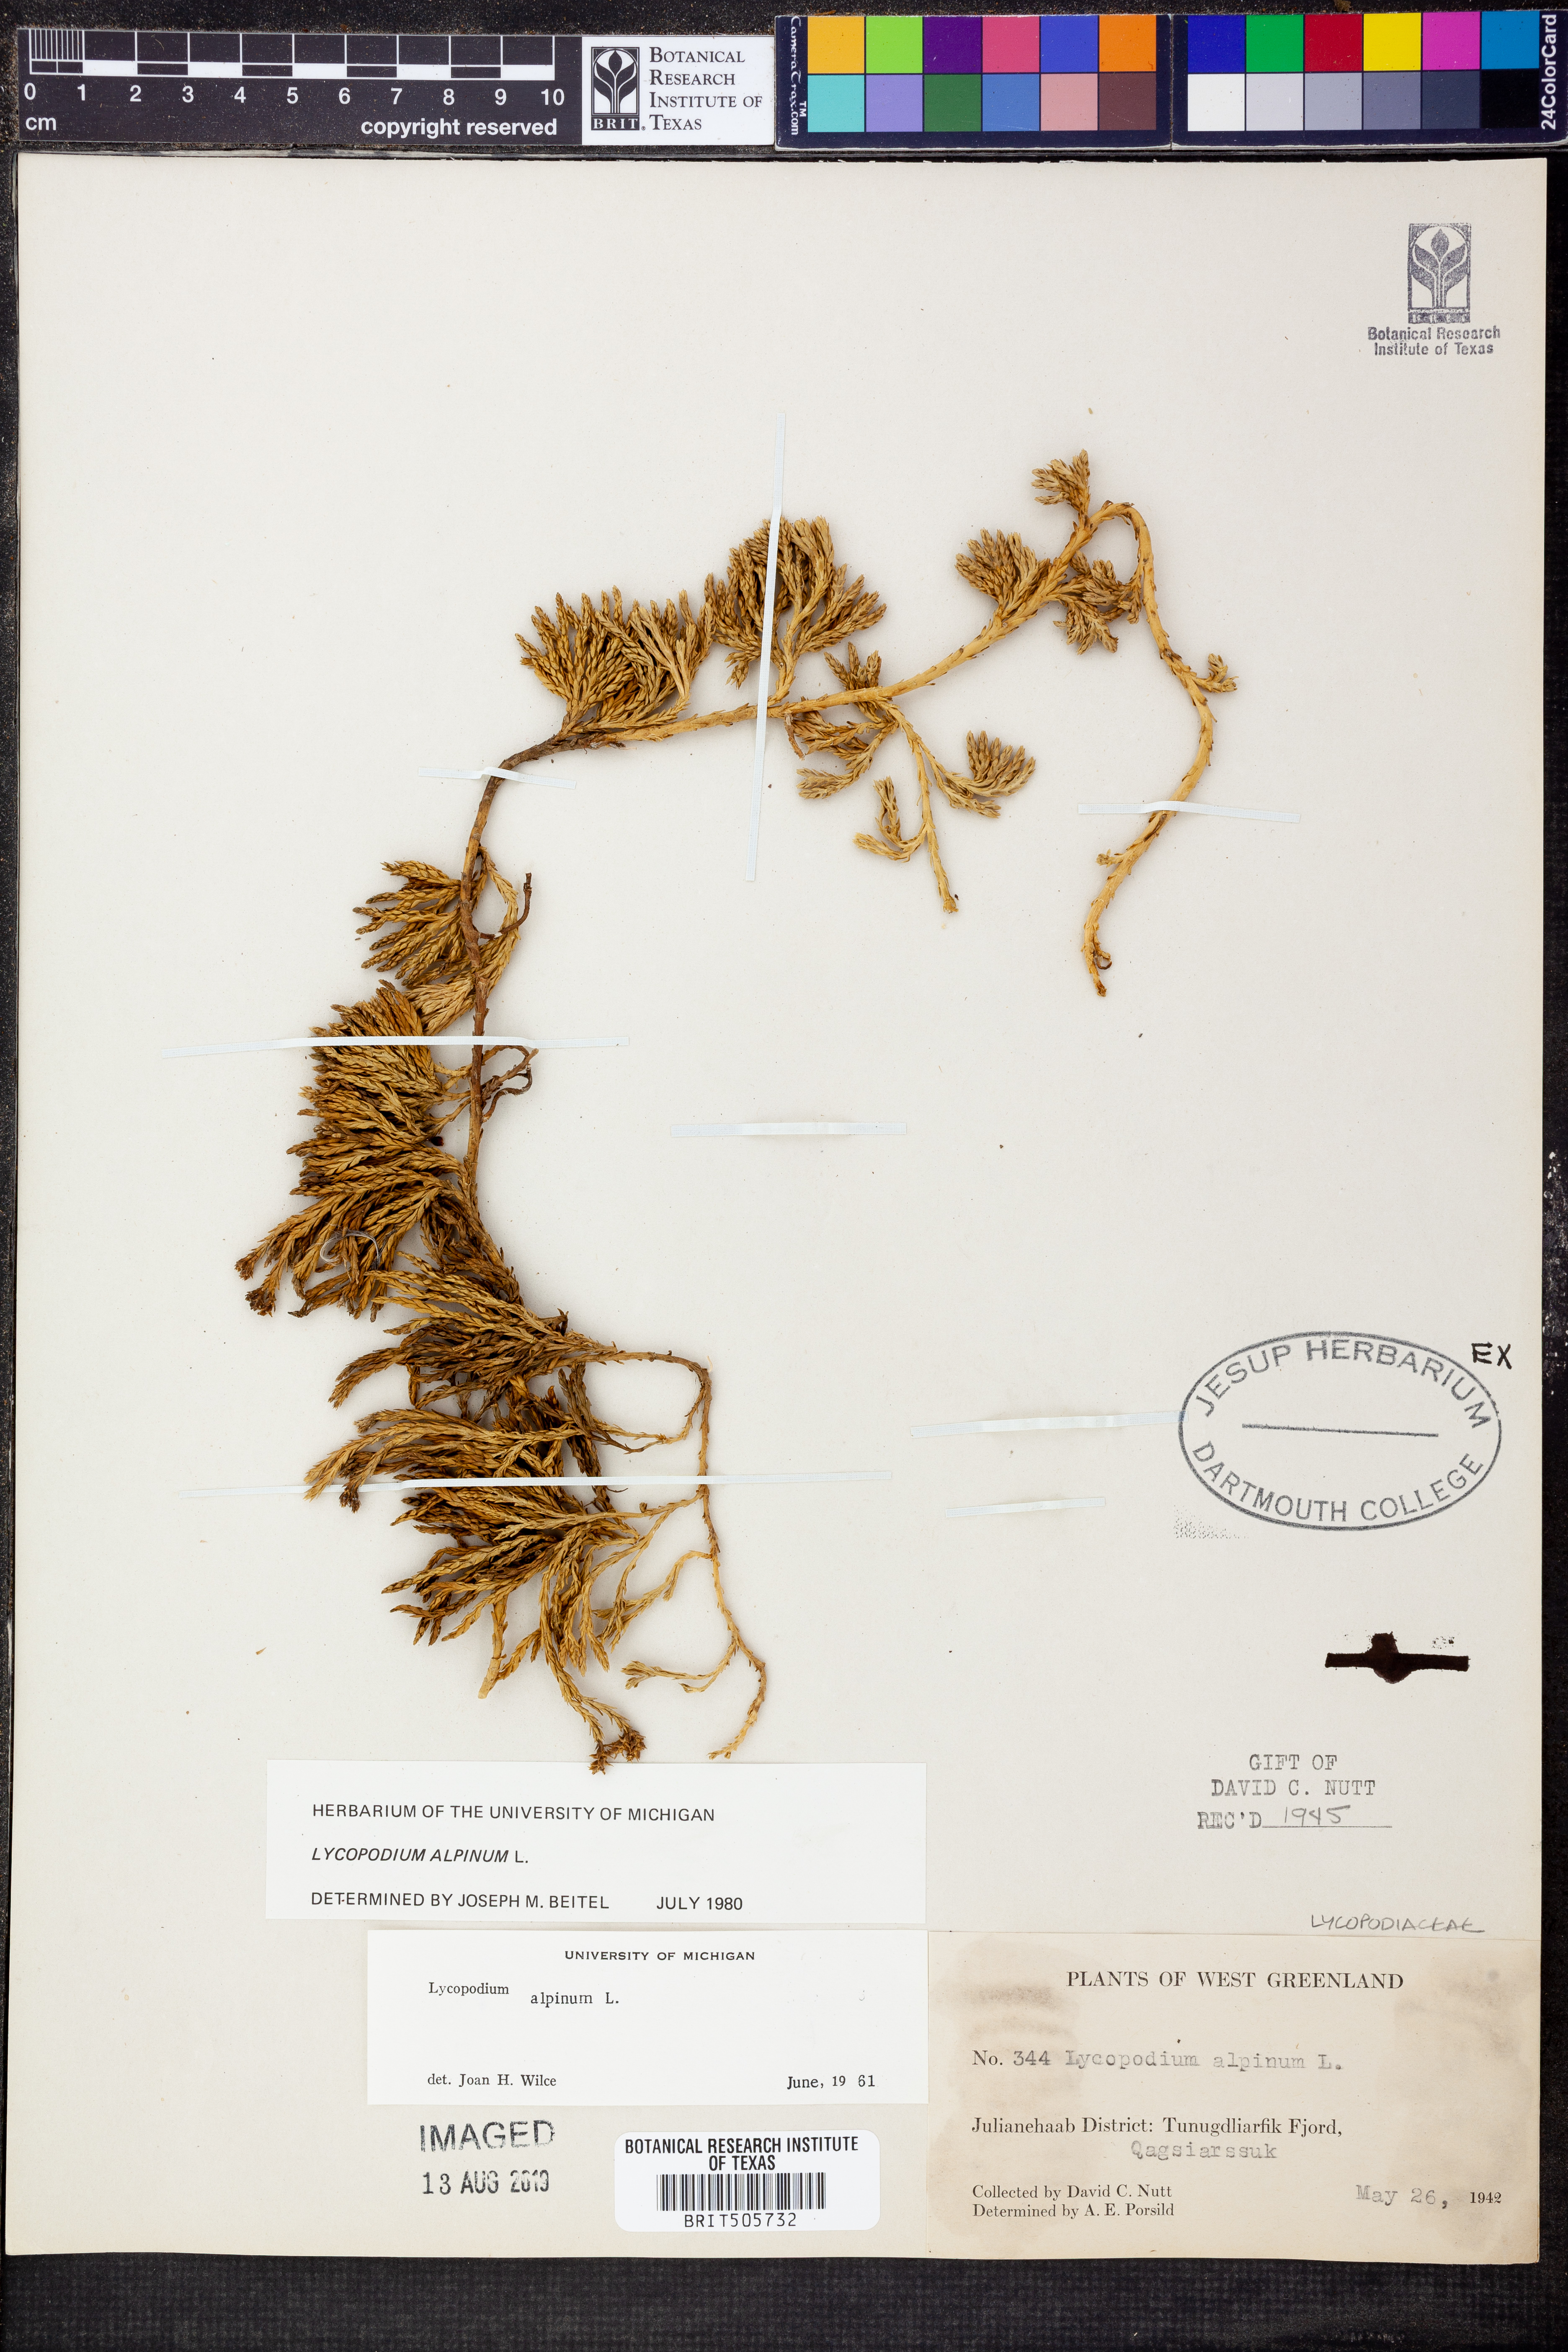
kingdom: Plantae
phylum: Tracheophyta
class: Lycopodiopsida
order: Lycopodiales
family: Lycopodiaceae
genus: Diphasiastrum
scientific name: Diphasiastrum alpinum
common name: Alpine clubmoss
